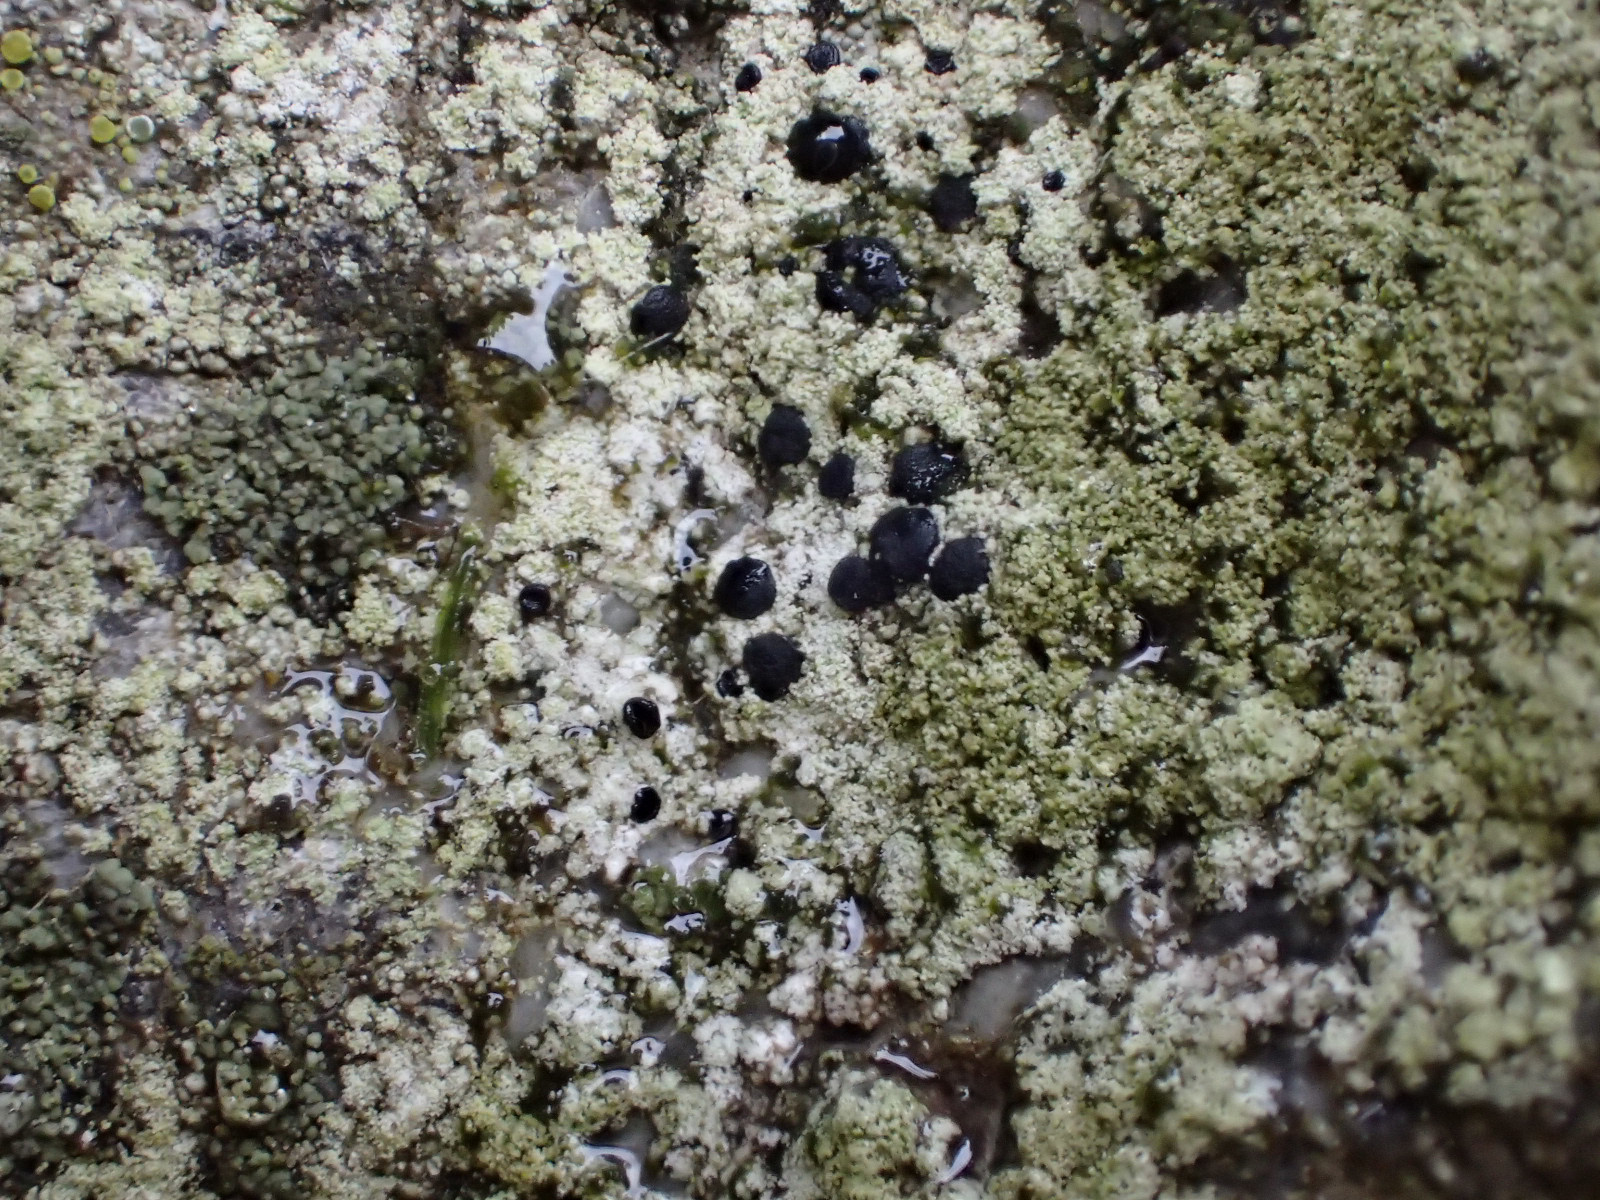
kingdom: Fungi
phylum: Ascomycota
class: Lecanoromycetes
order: Lecanorales
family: Lecanoraceae
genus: Lecidella
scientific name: Lecidella scabra
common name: skurvet skivelav
